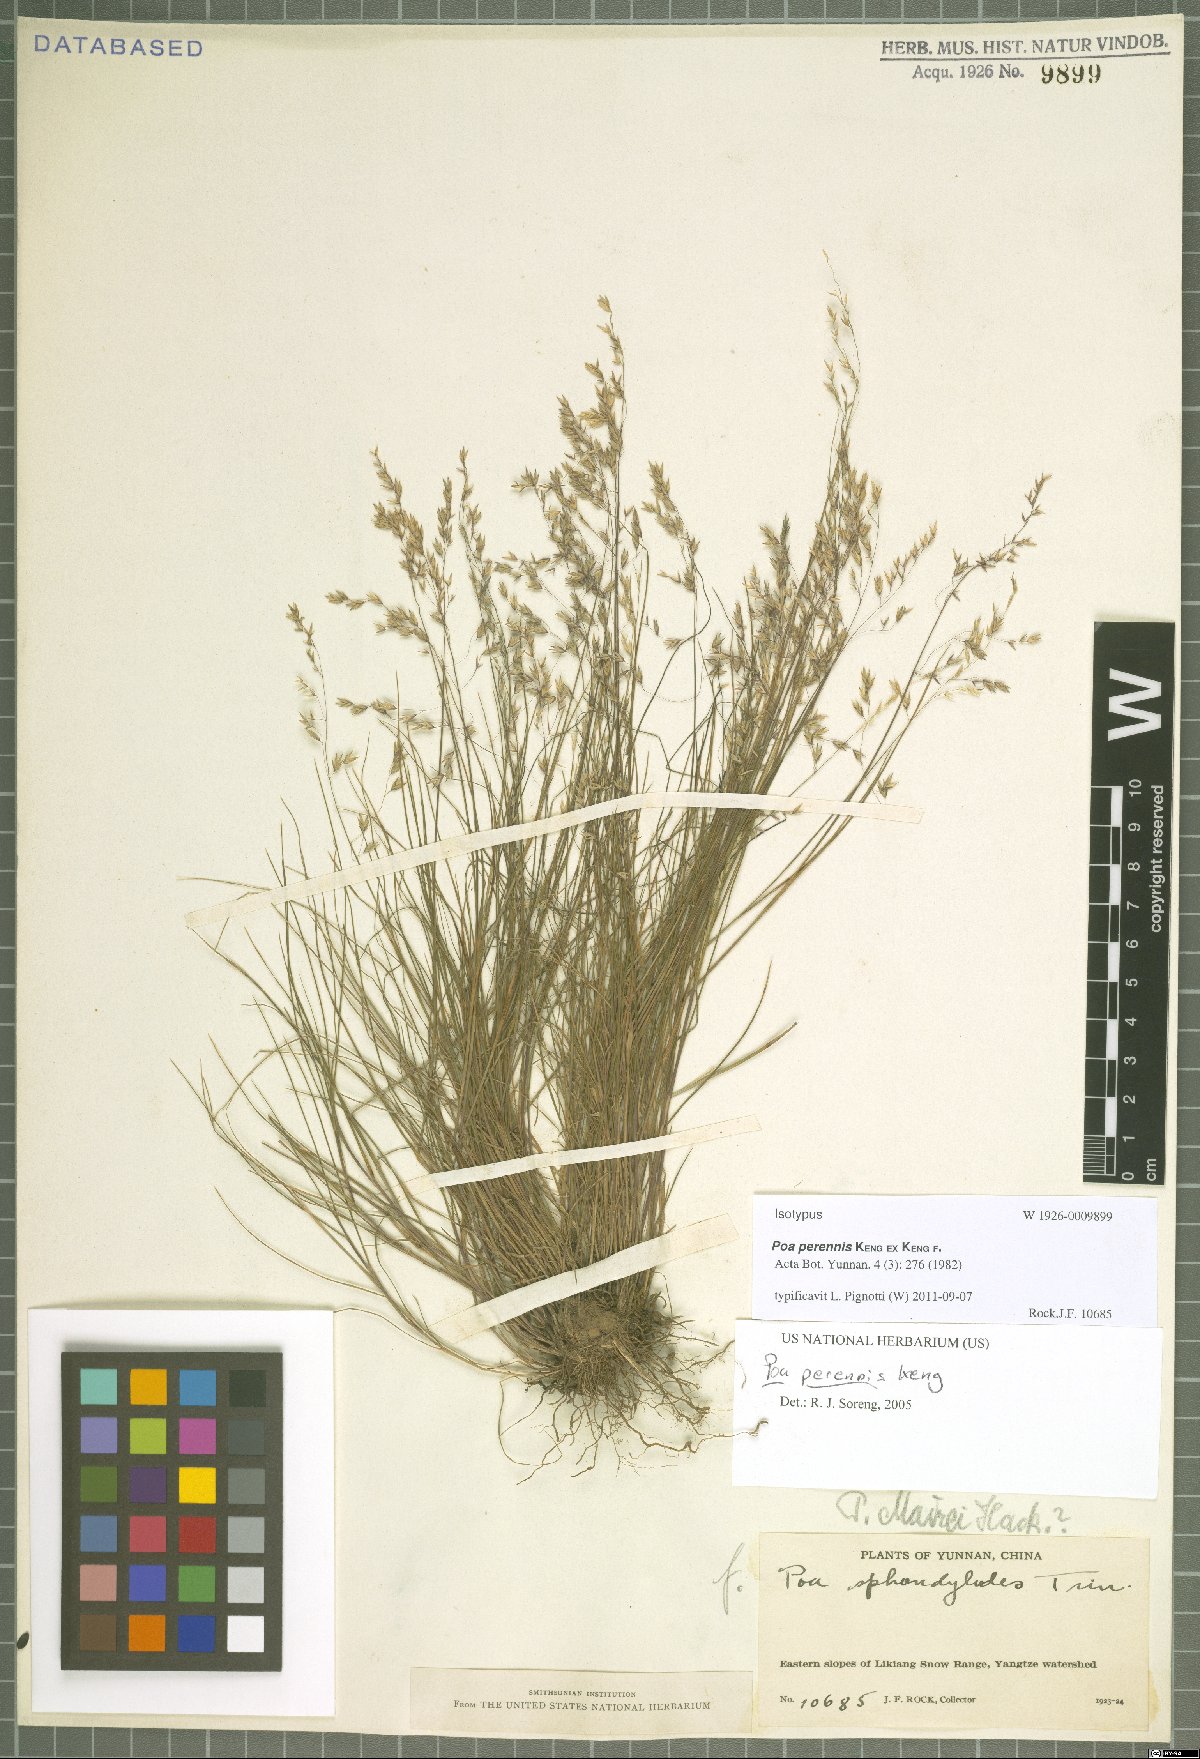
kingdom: Plantae
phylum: Tracheophyta
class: Liliopsida
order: Poales
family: Poaceae
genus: Poa
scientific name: Poa perennis
